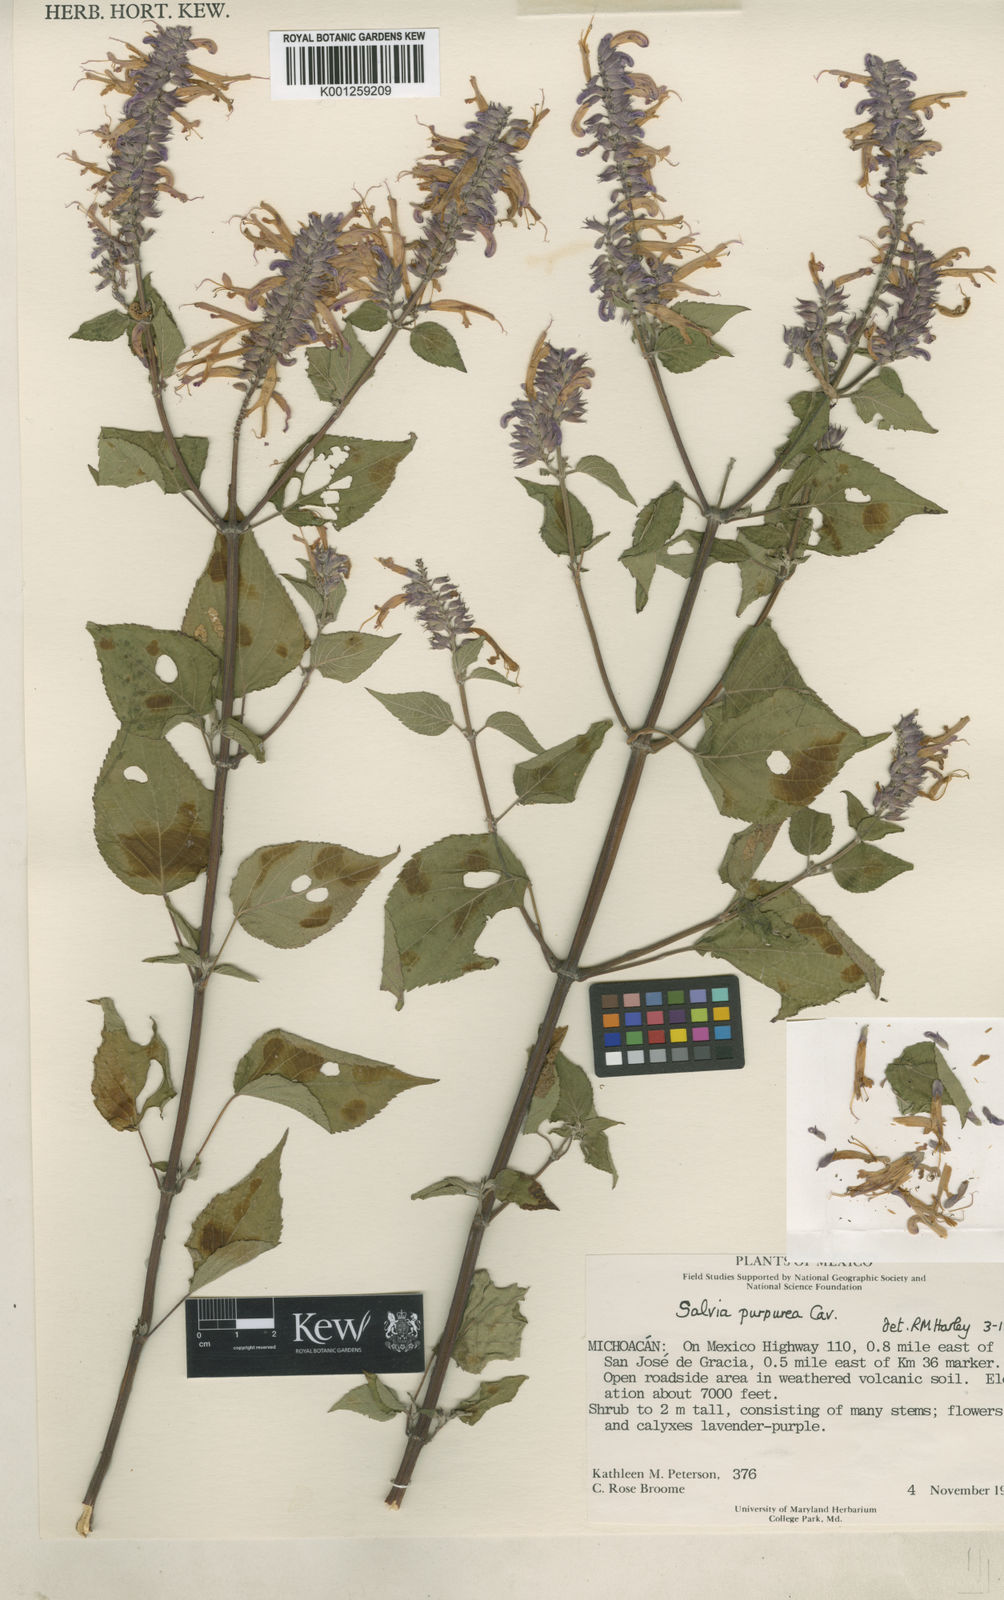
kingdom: Plantae
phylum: Tracheophyta
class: Magnoliopsida
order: Lamiales
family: Lamiaceae
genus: Salvia
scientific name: Salvia purpurea
